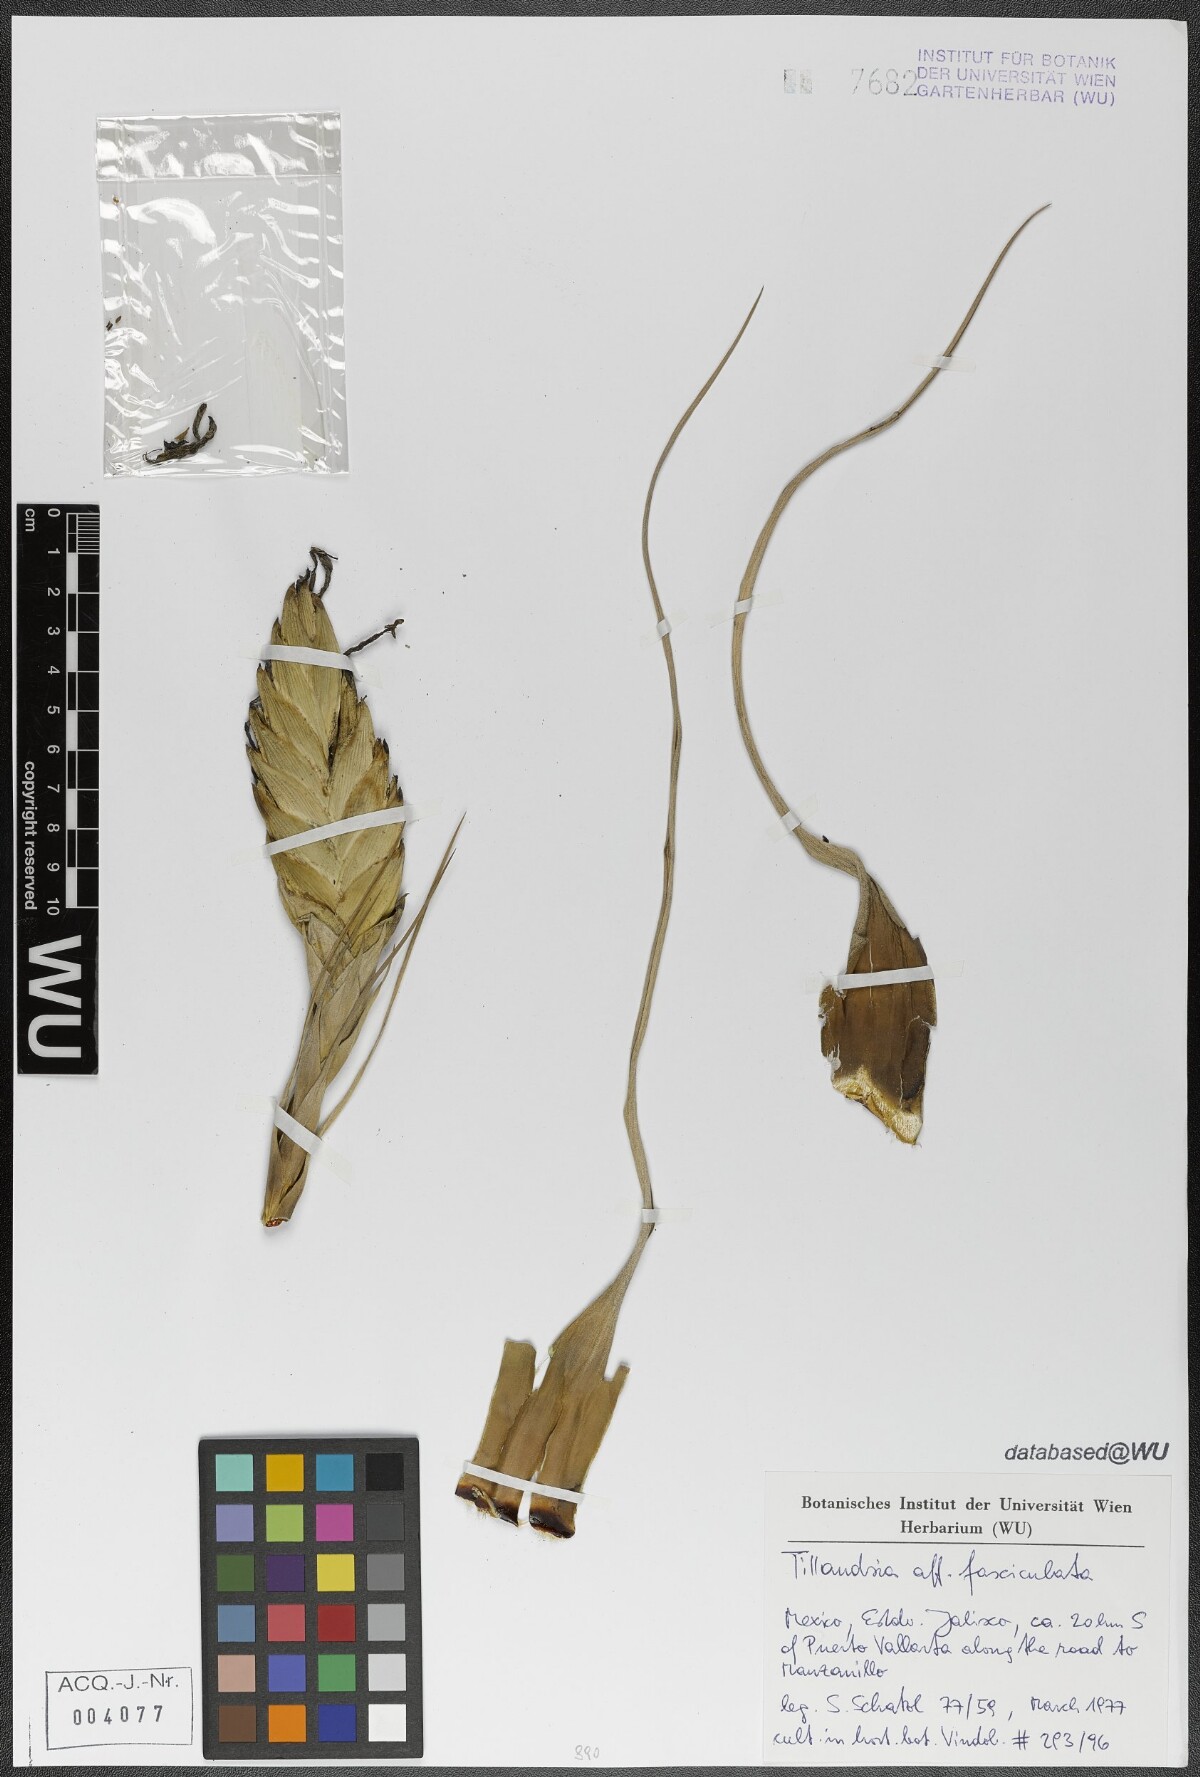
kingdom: Plantae
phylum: Tracheophyta
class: Liliopsida
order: Poales
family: Bromeliaceae
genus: Tillandsia
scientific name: Tillandsia fasciculata
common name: Giant airplant
